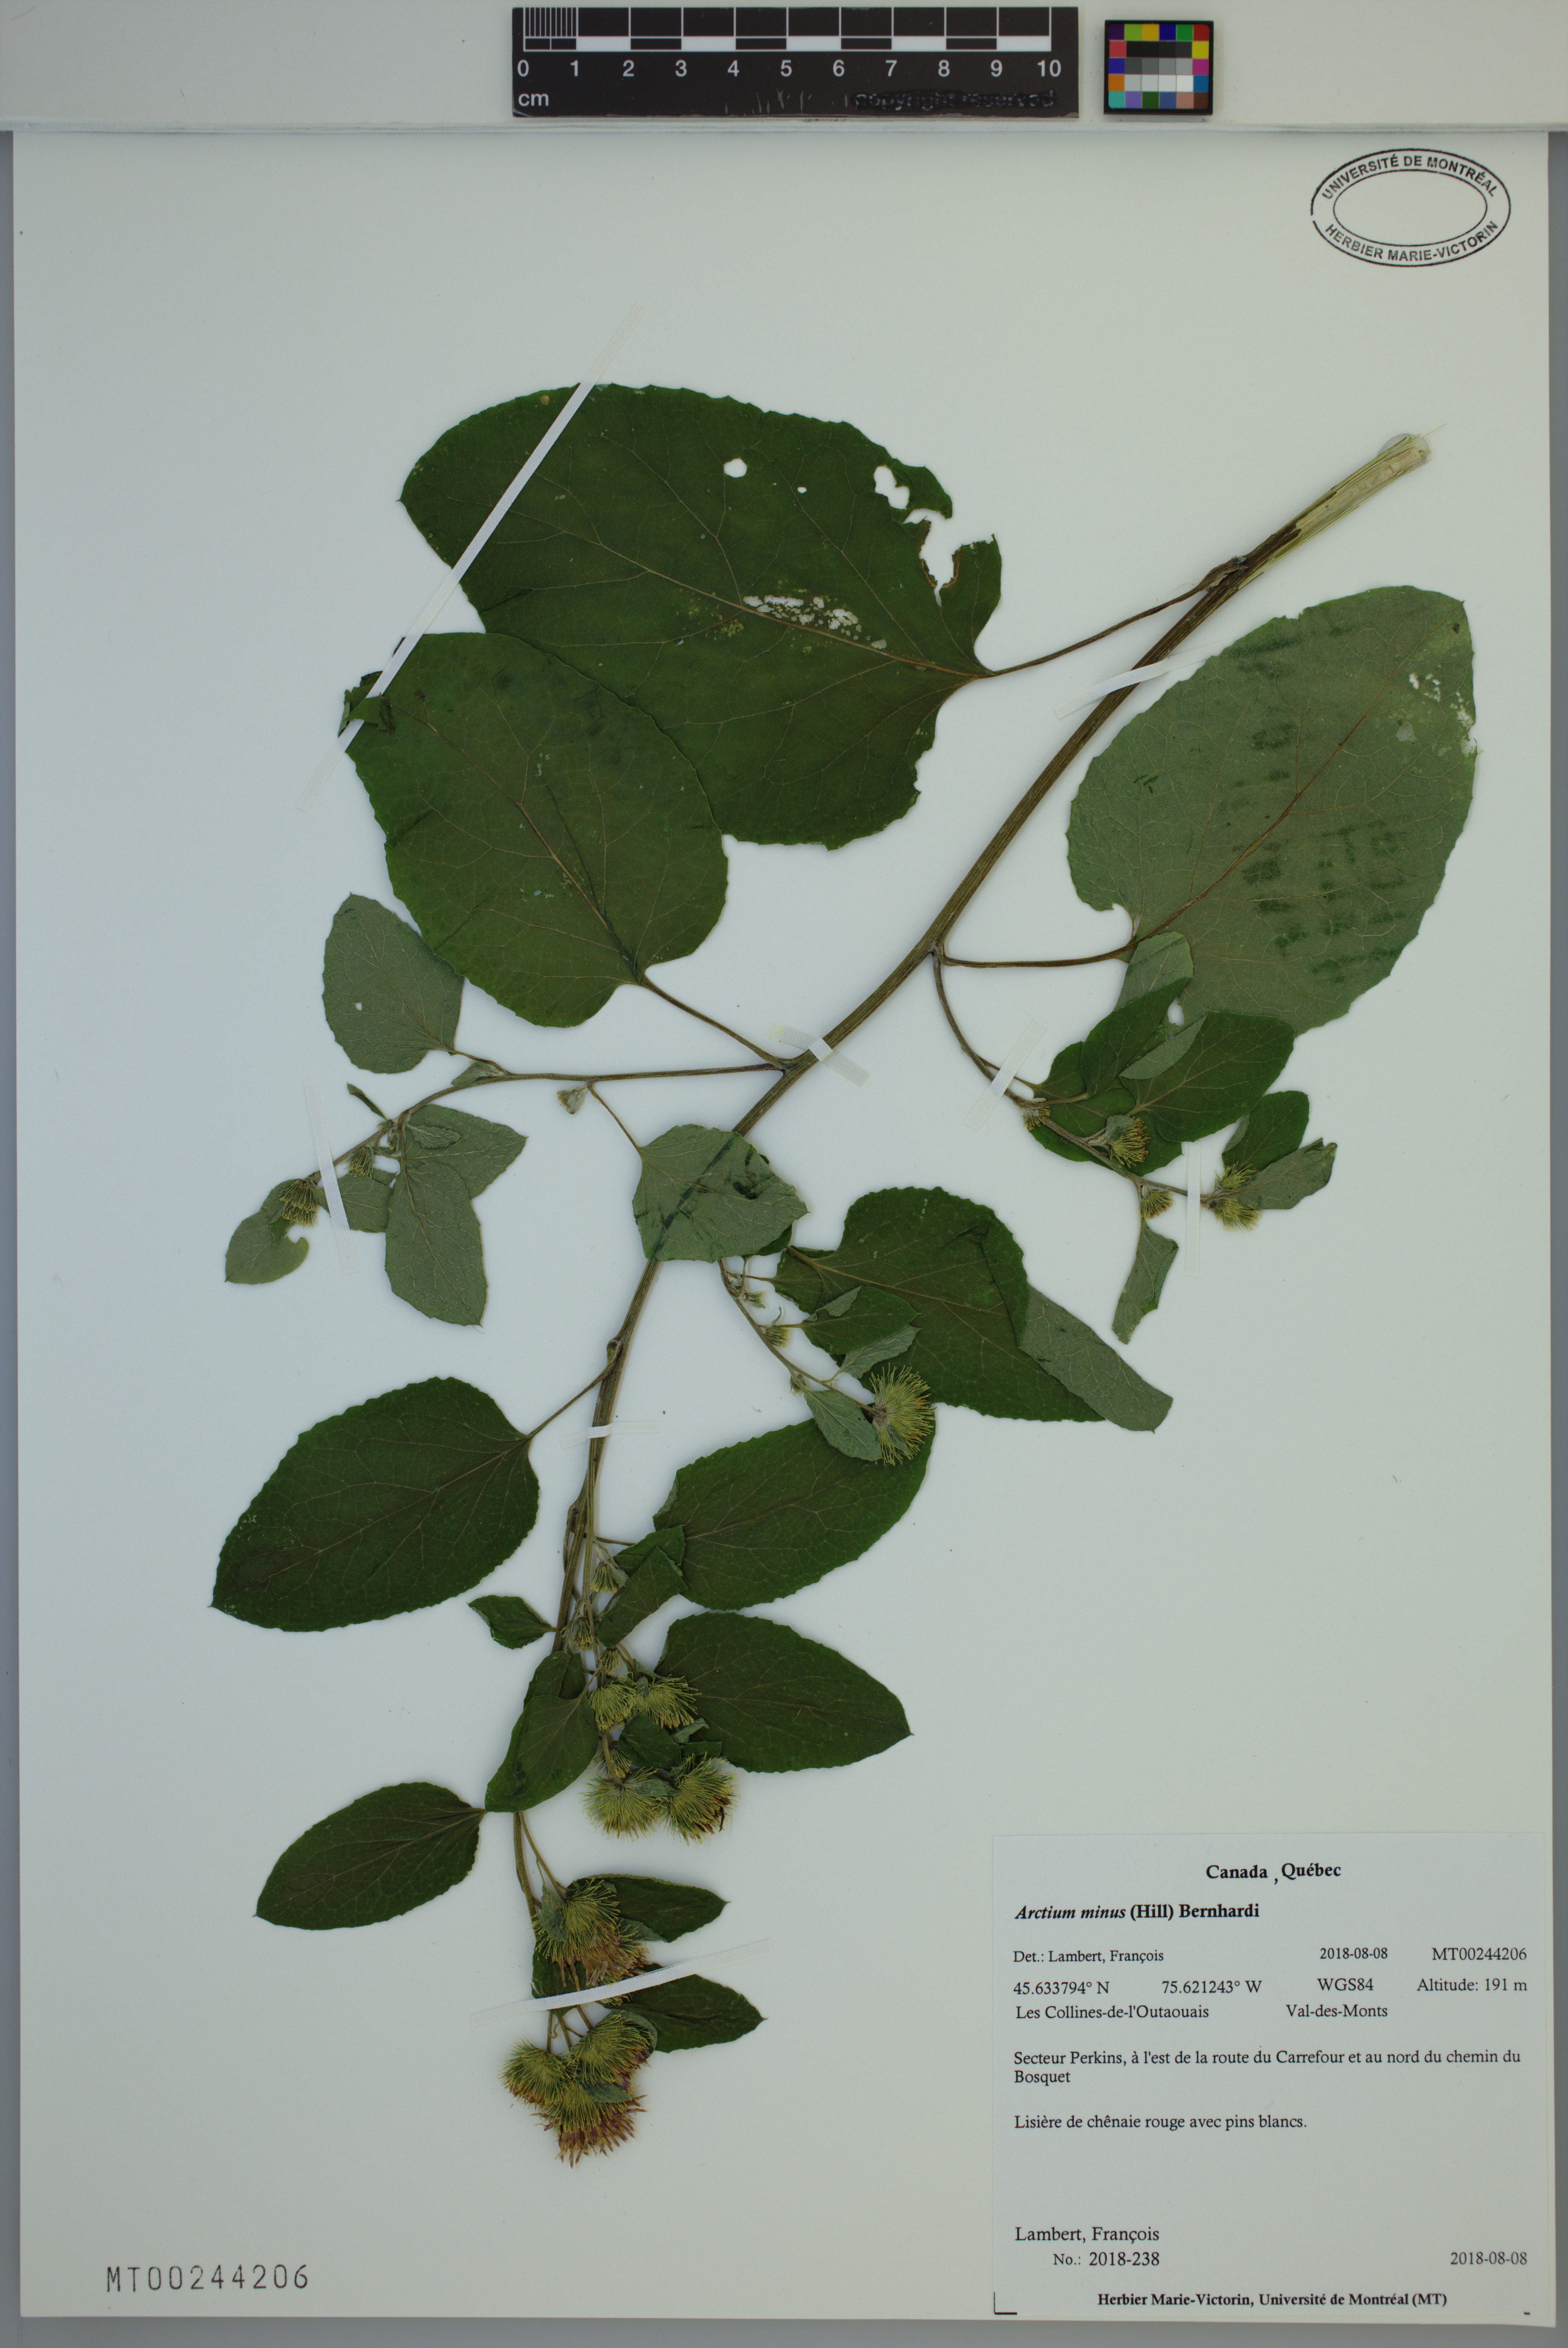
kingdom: Plantae
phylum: Tracheophyta
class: Magnoliopsida
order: Asterales
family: Asteraceae
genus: Arctium
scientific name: Arctium minus
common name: Lesser burdock
